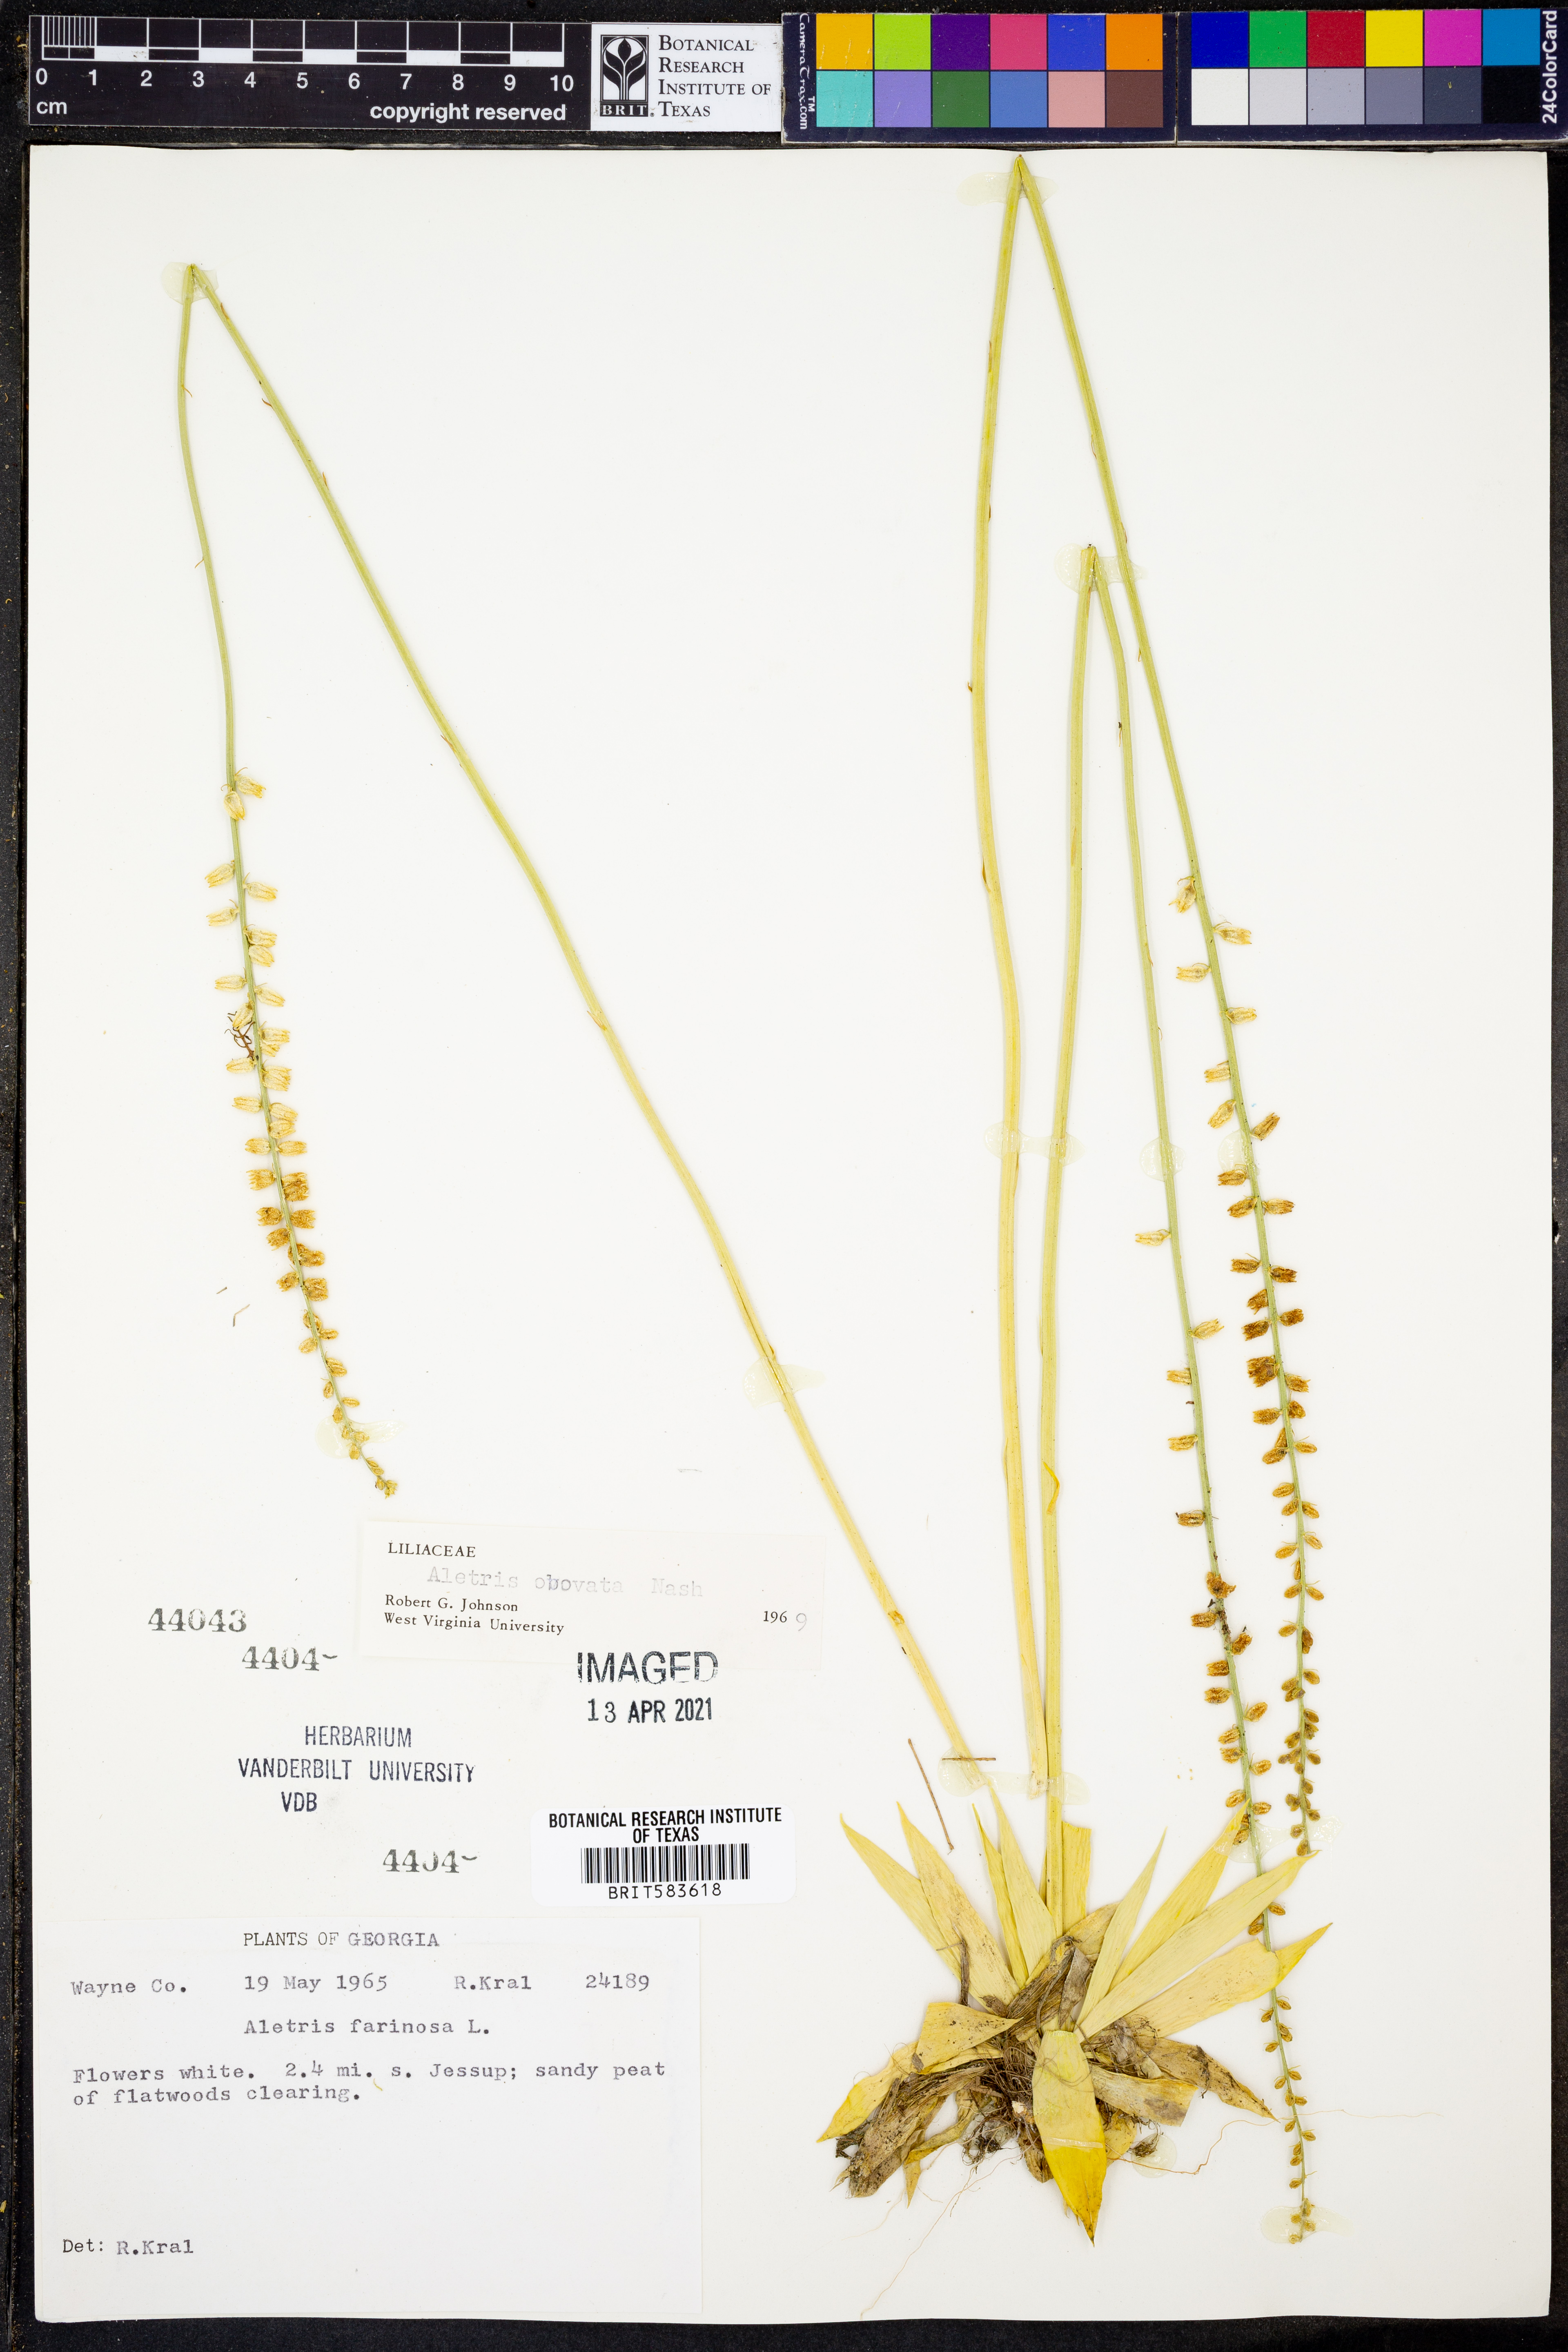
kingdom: Plantae
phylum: Tracheophyta
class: Liliopsida
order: Dioscoreales
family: Nartheciaceae
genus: Aletris
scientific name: Aletris farinosa
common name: Colicroot
